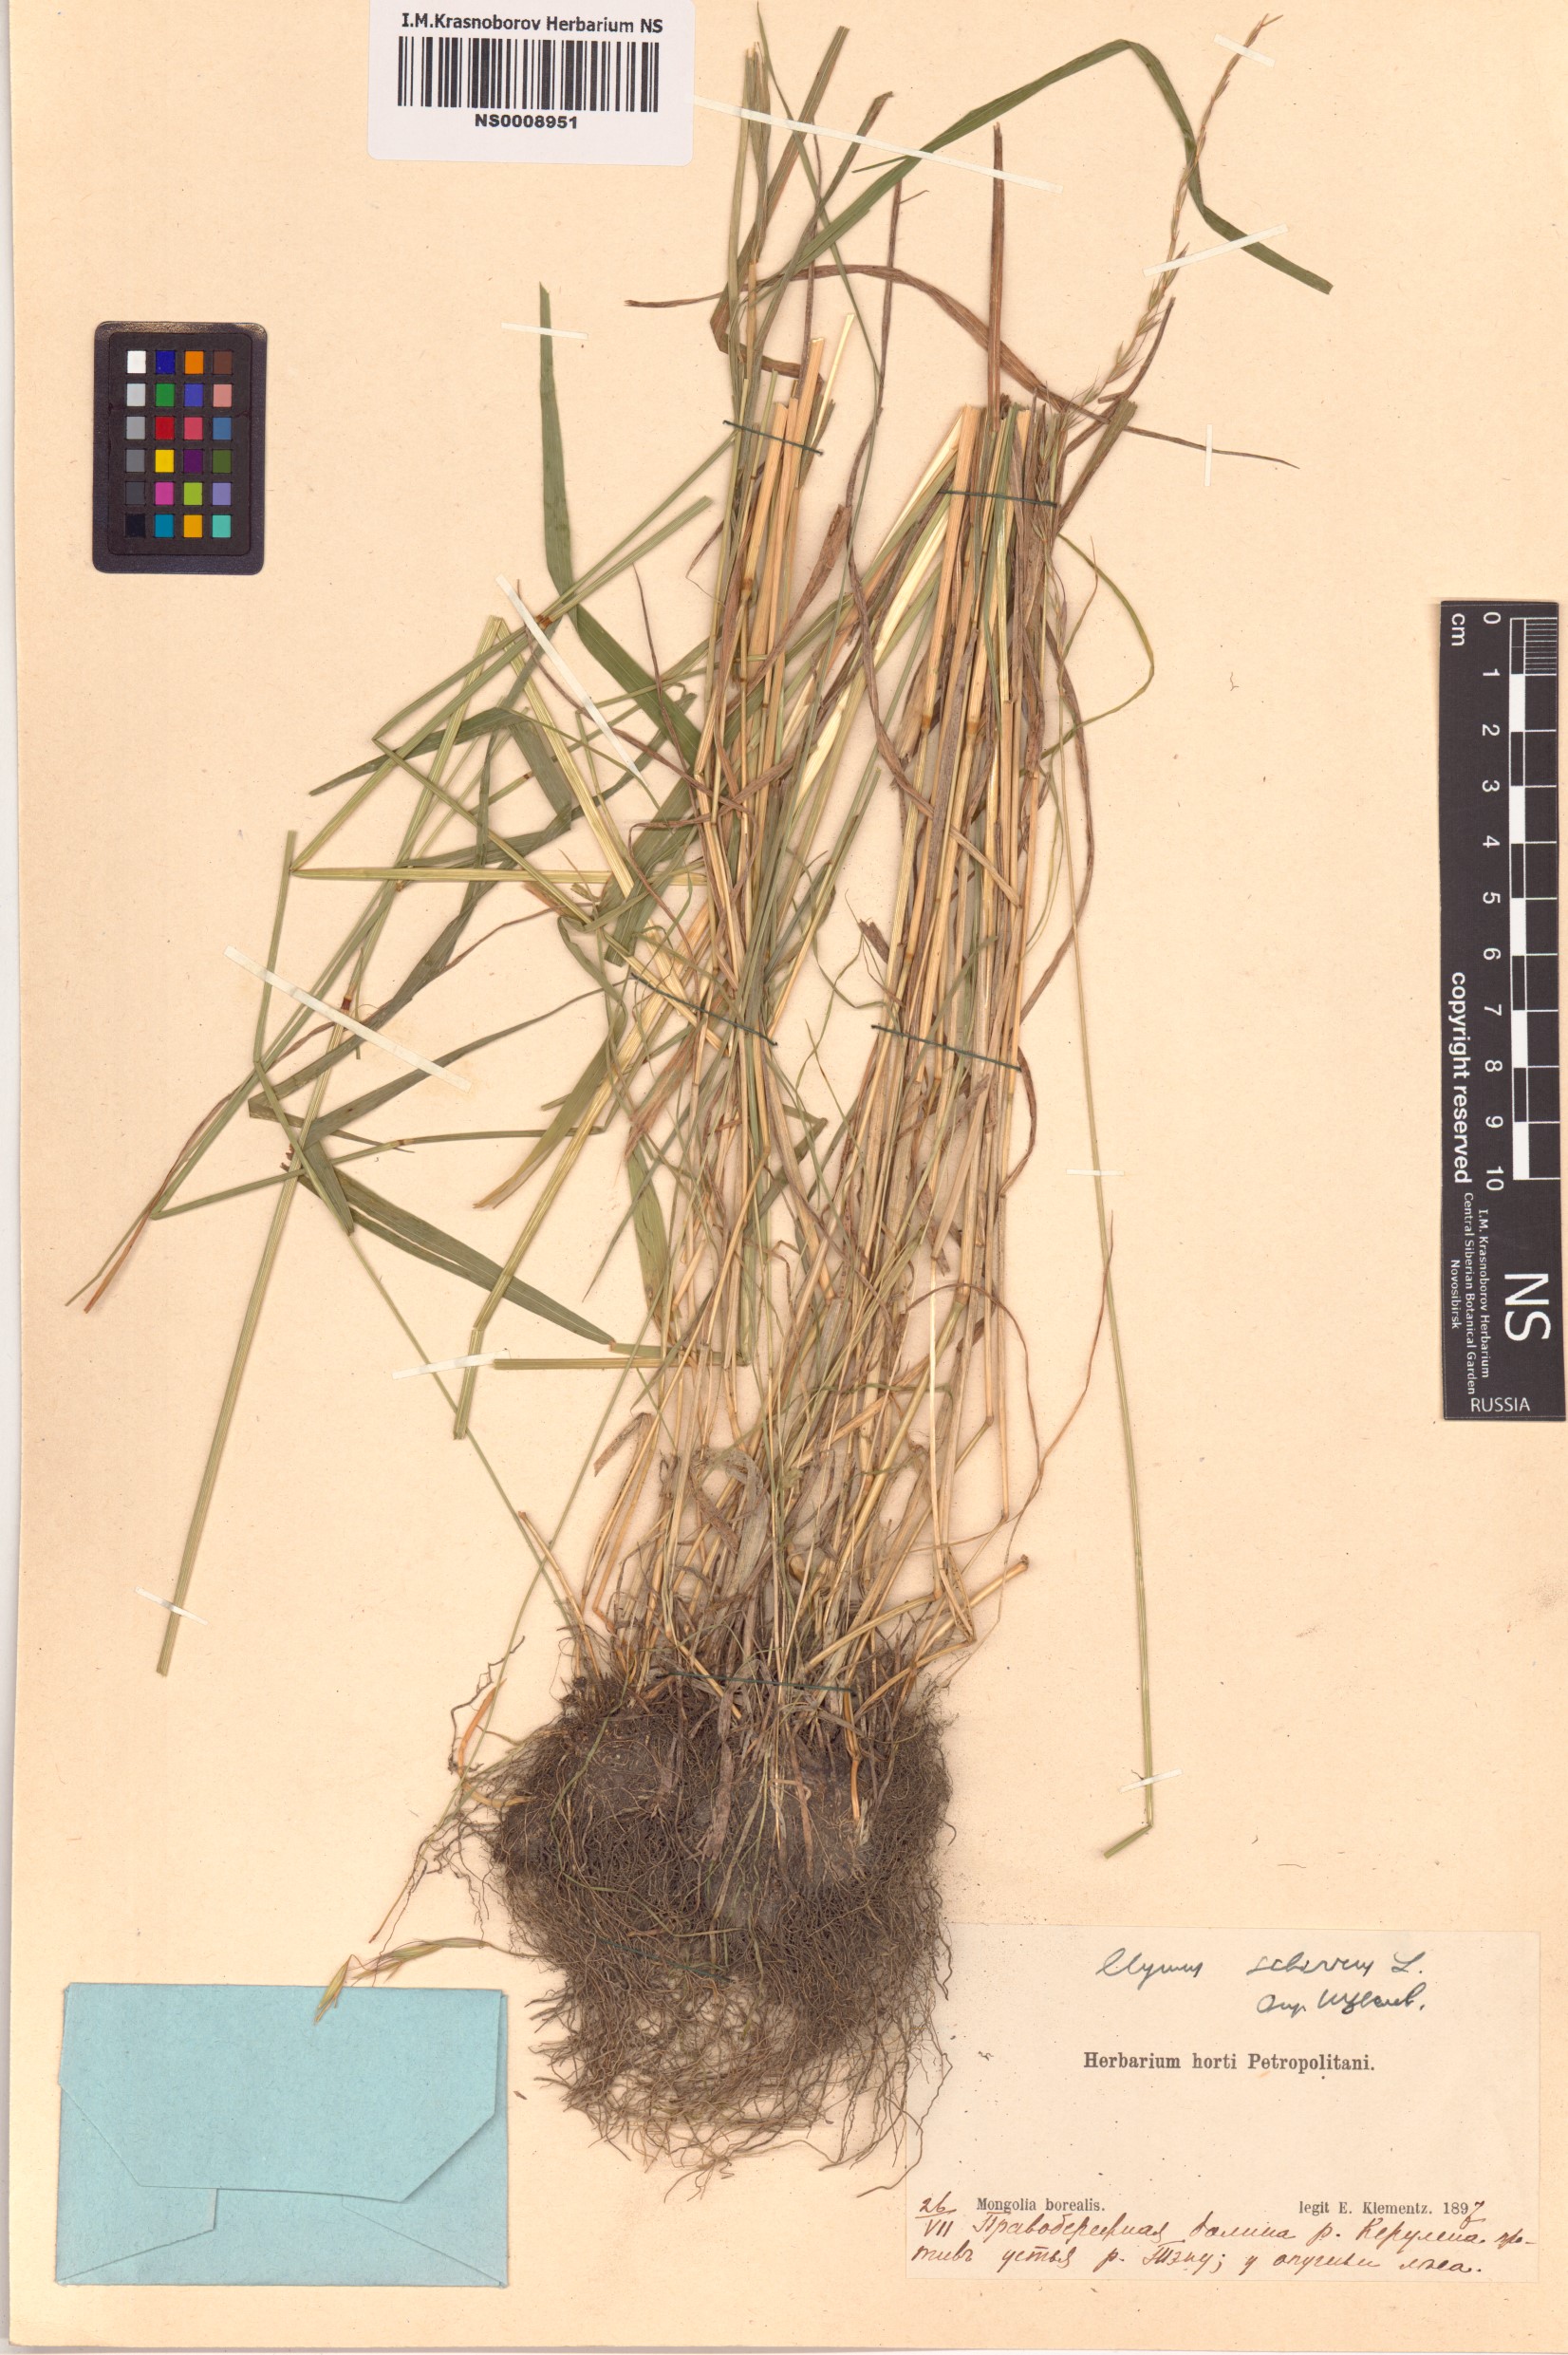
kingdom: Plantae
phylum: Tracheophyta
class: Liliopsida
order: Poales
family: Poaceae
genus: Elymus
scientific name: Elymus sibiricus
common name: Siberian wildrye
